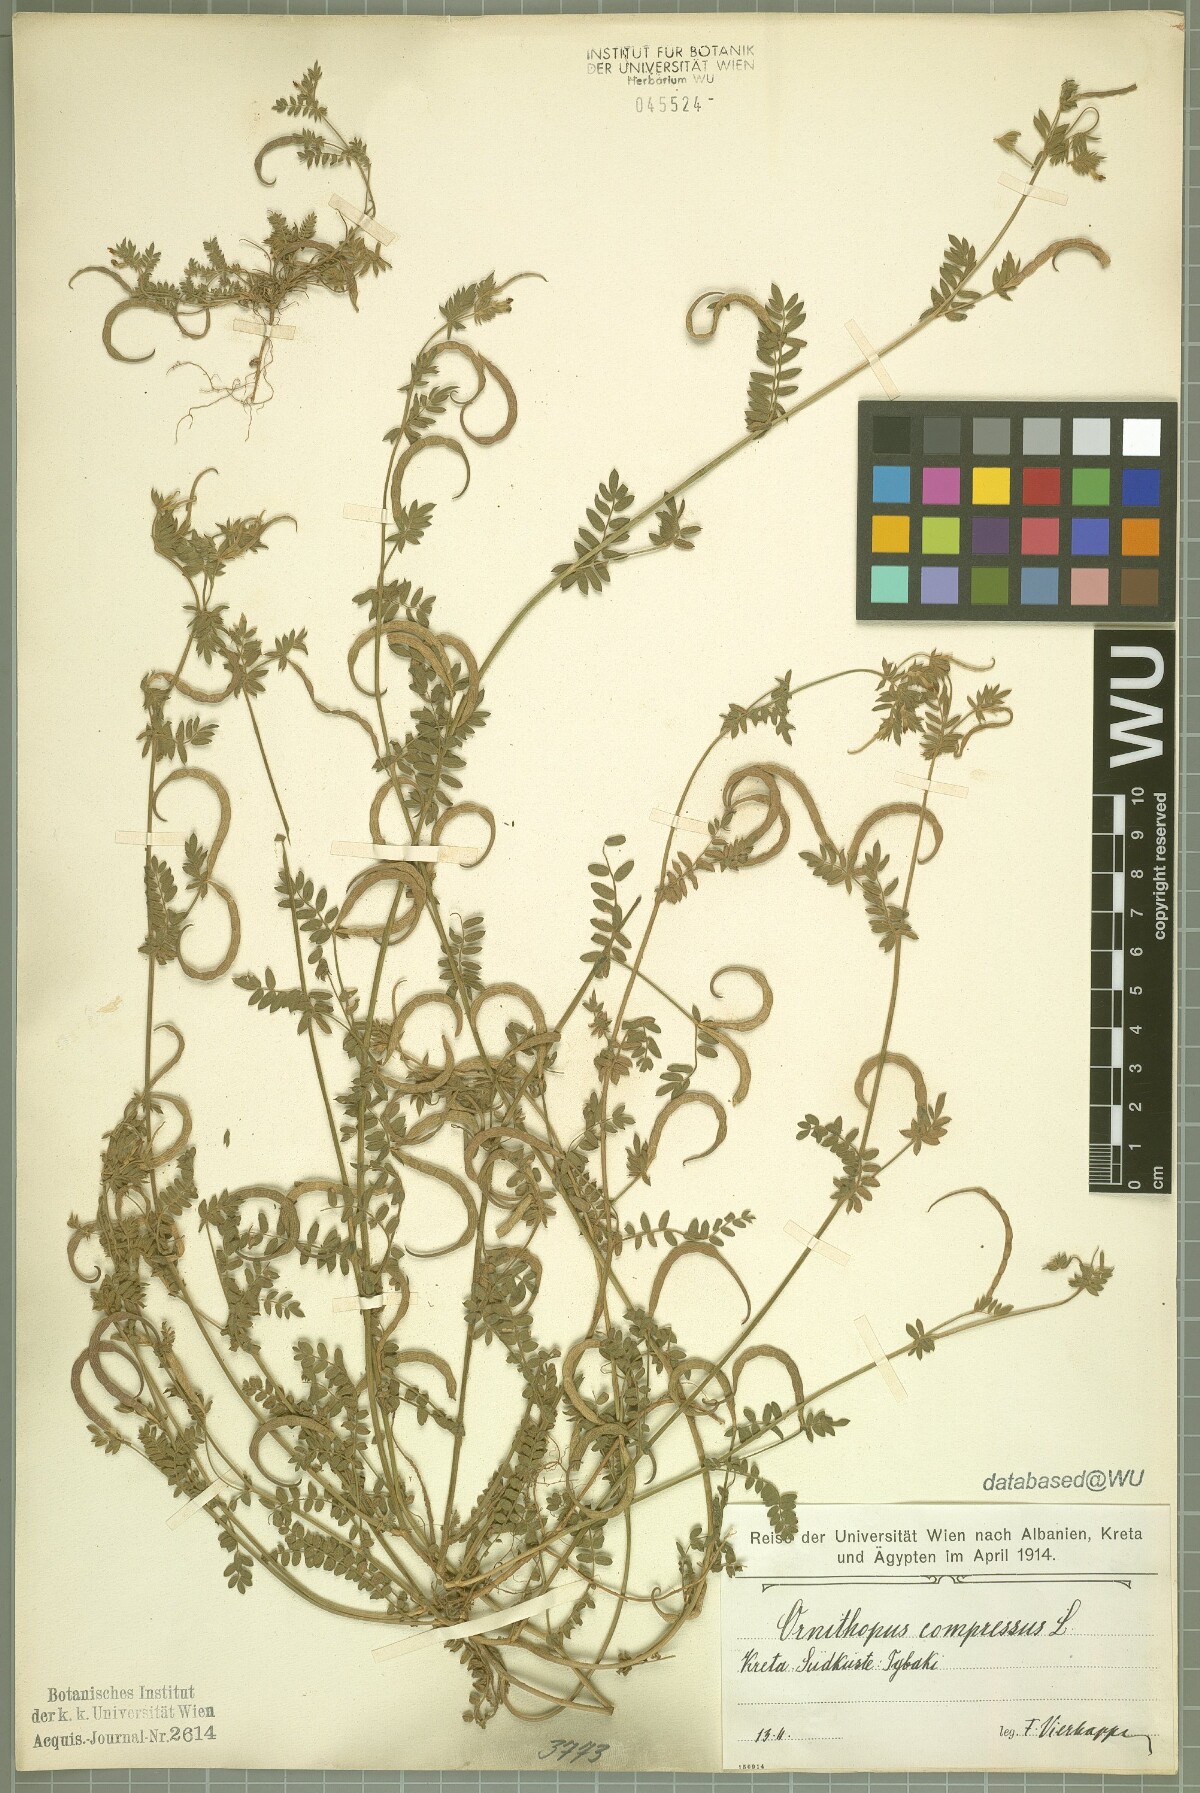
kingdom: Plantae
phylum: Tracheophyta
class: Magnoliopsida
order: Fabales
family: Fabaceae
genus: Ornithopus
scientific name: Ornithopus compressus
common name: Yellow serradella
